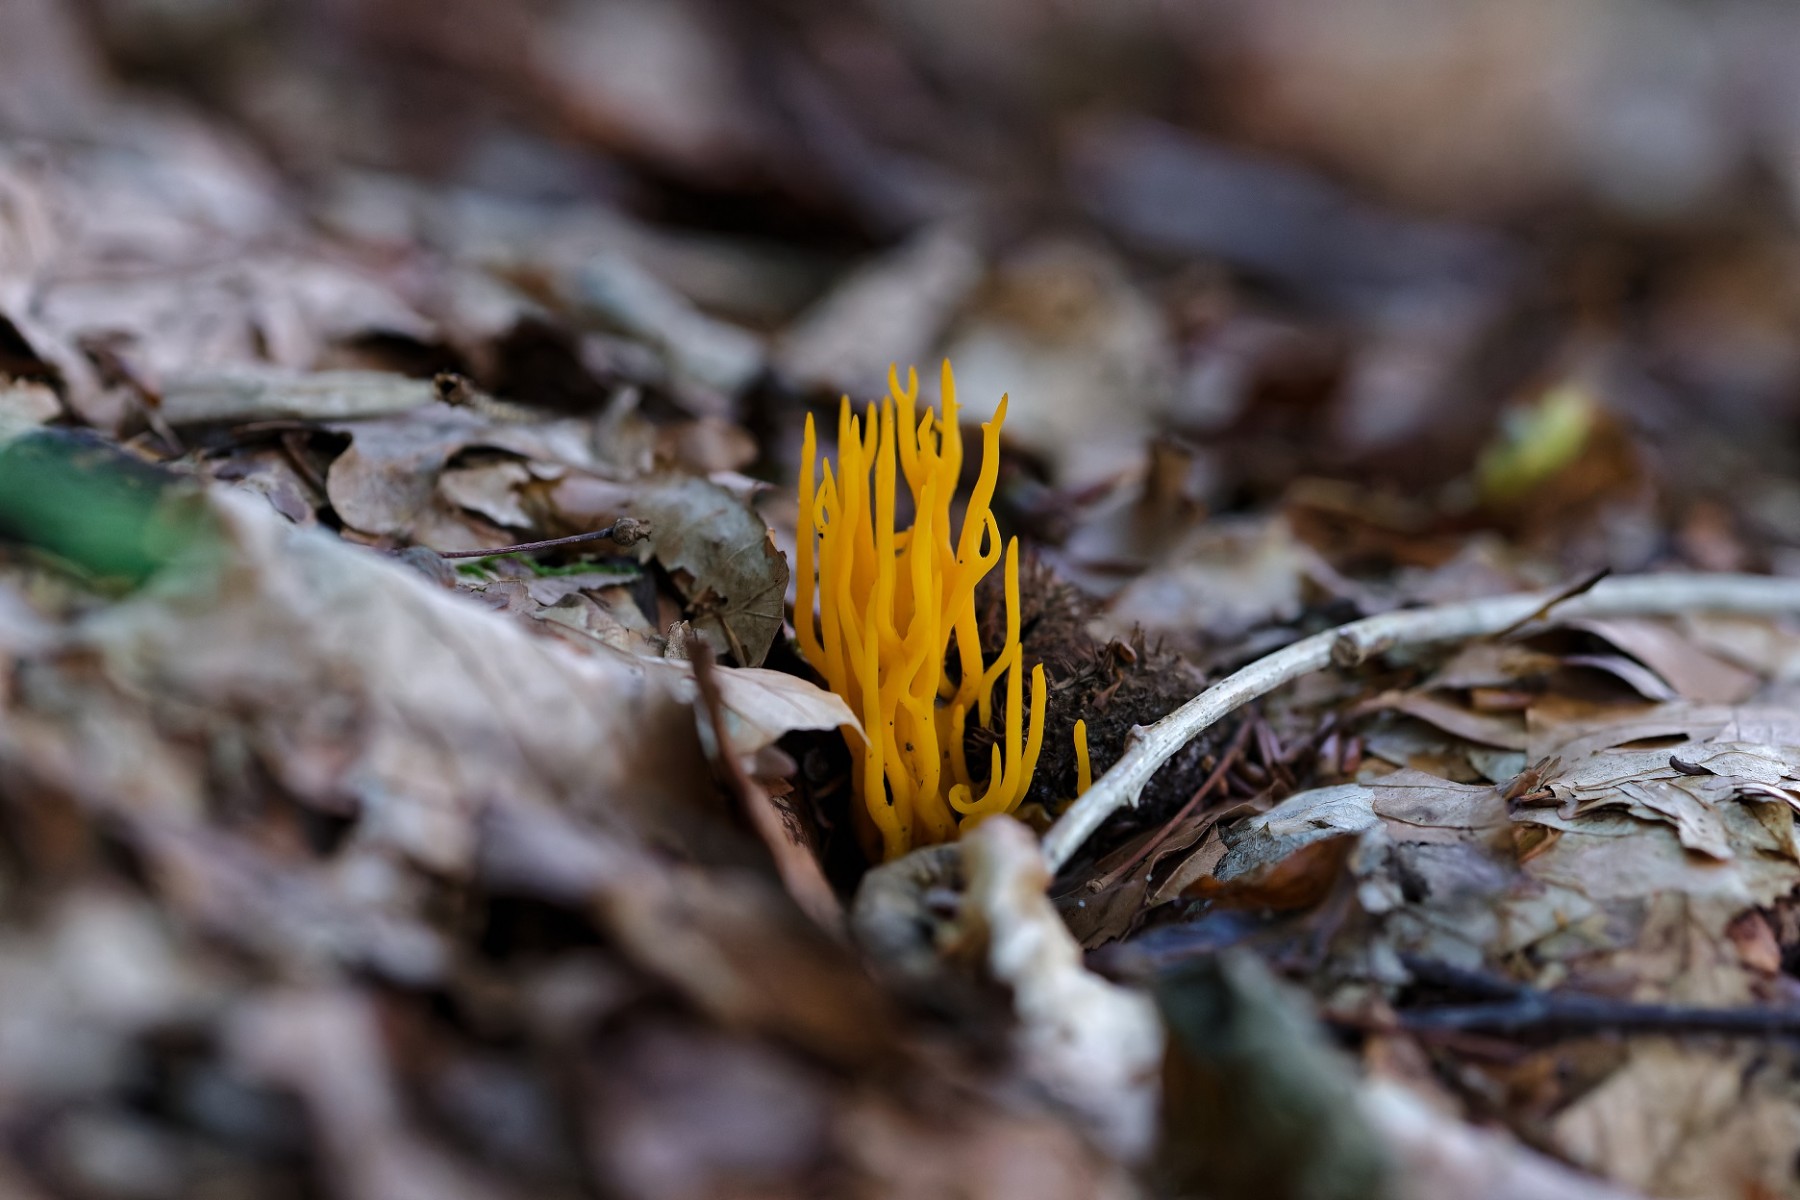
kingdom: Fungi
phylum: Basidiomycota
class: Dacrymycetes
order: Dacrymycetales
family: Dacrymycetaceae
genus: Calocera
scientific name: Calocera viscosa
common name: almindelig guldgaffel
